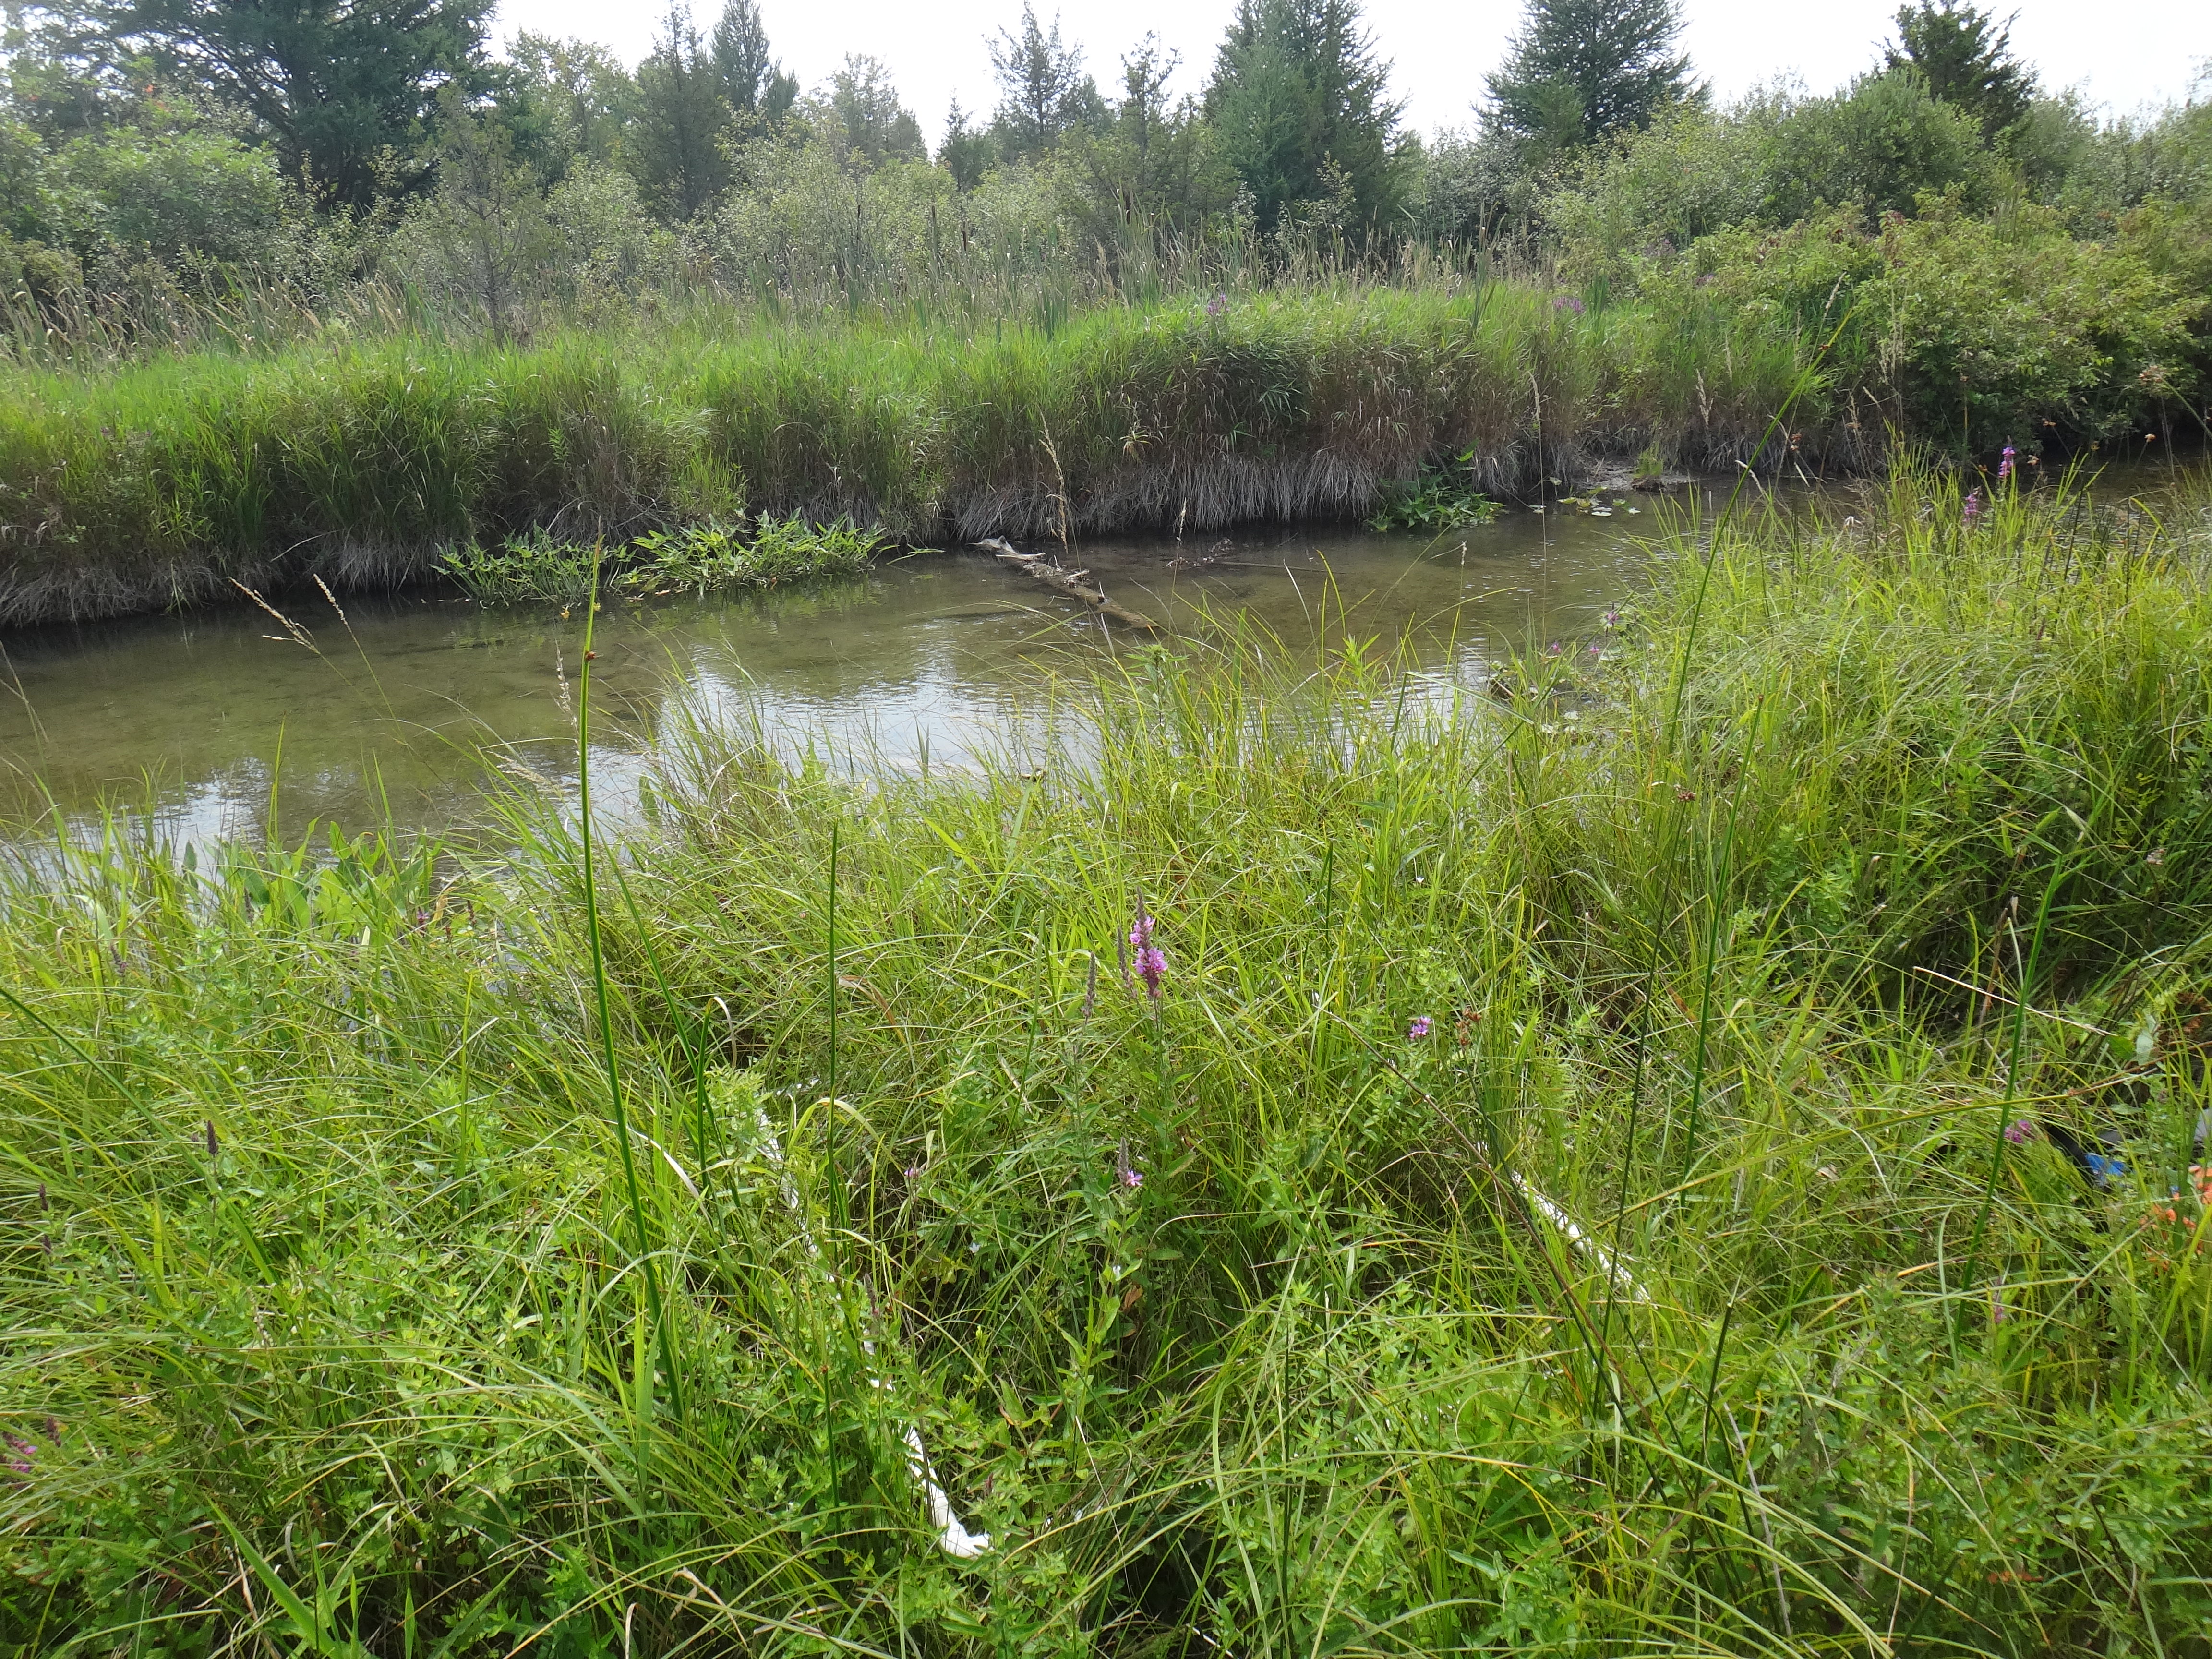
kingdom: Plantae
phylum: Tracheophyta
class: Liliopsida
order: Poales
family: Cyperaceae
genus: Schoenoplectus
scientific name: Schoenoplectus pungens
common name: Sharp club-rush
